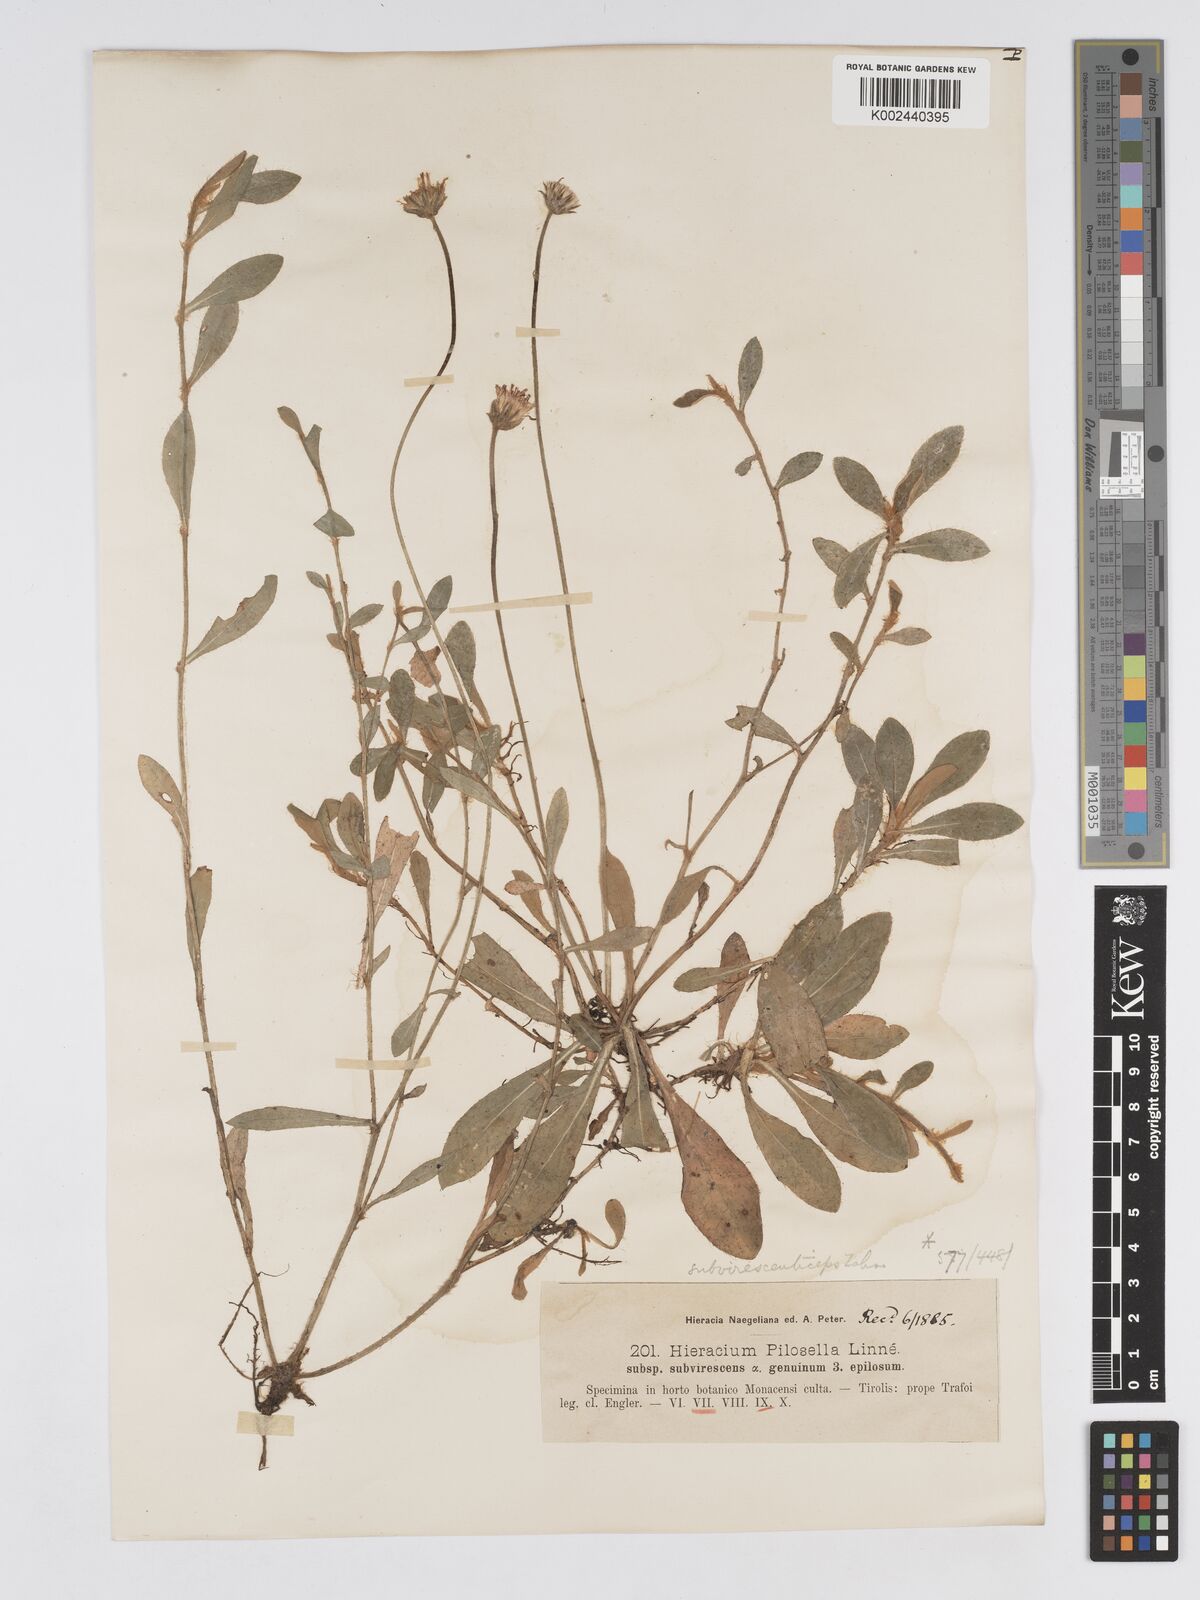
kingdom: Plantae
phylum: Tracheophyta
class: Magnoliopsida
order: Asterales
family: Asteraceae
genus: Pilosella
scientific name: Pilosella officinarum
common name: Mouse-ear hawkweed
